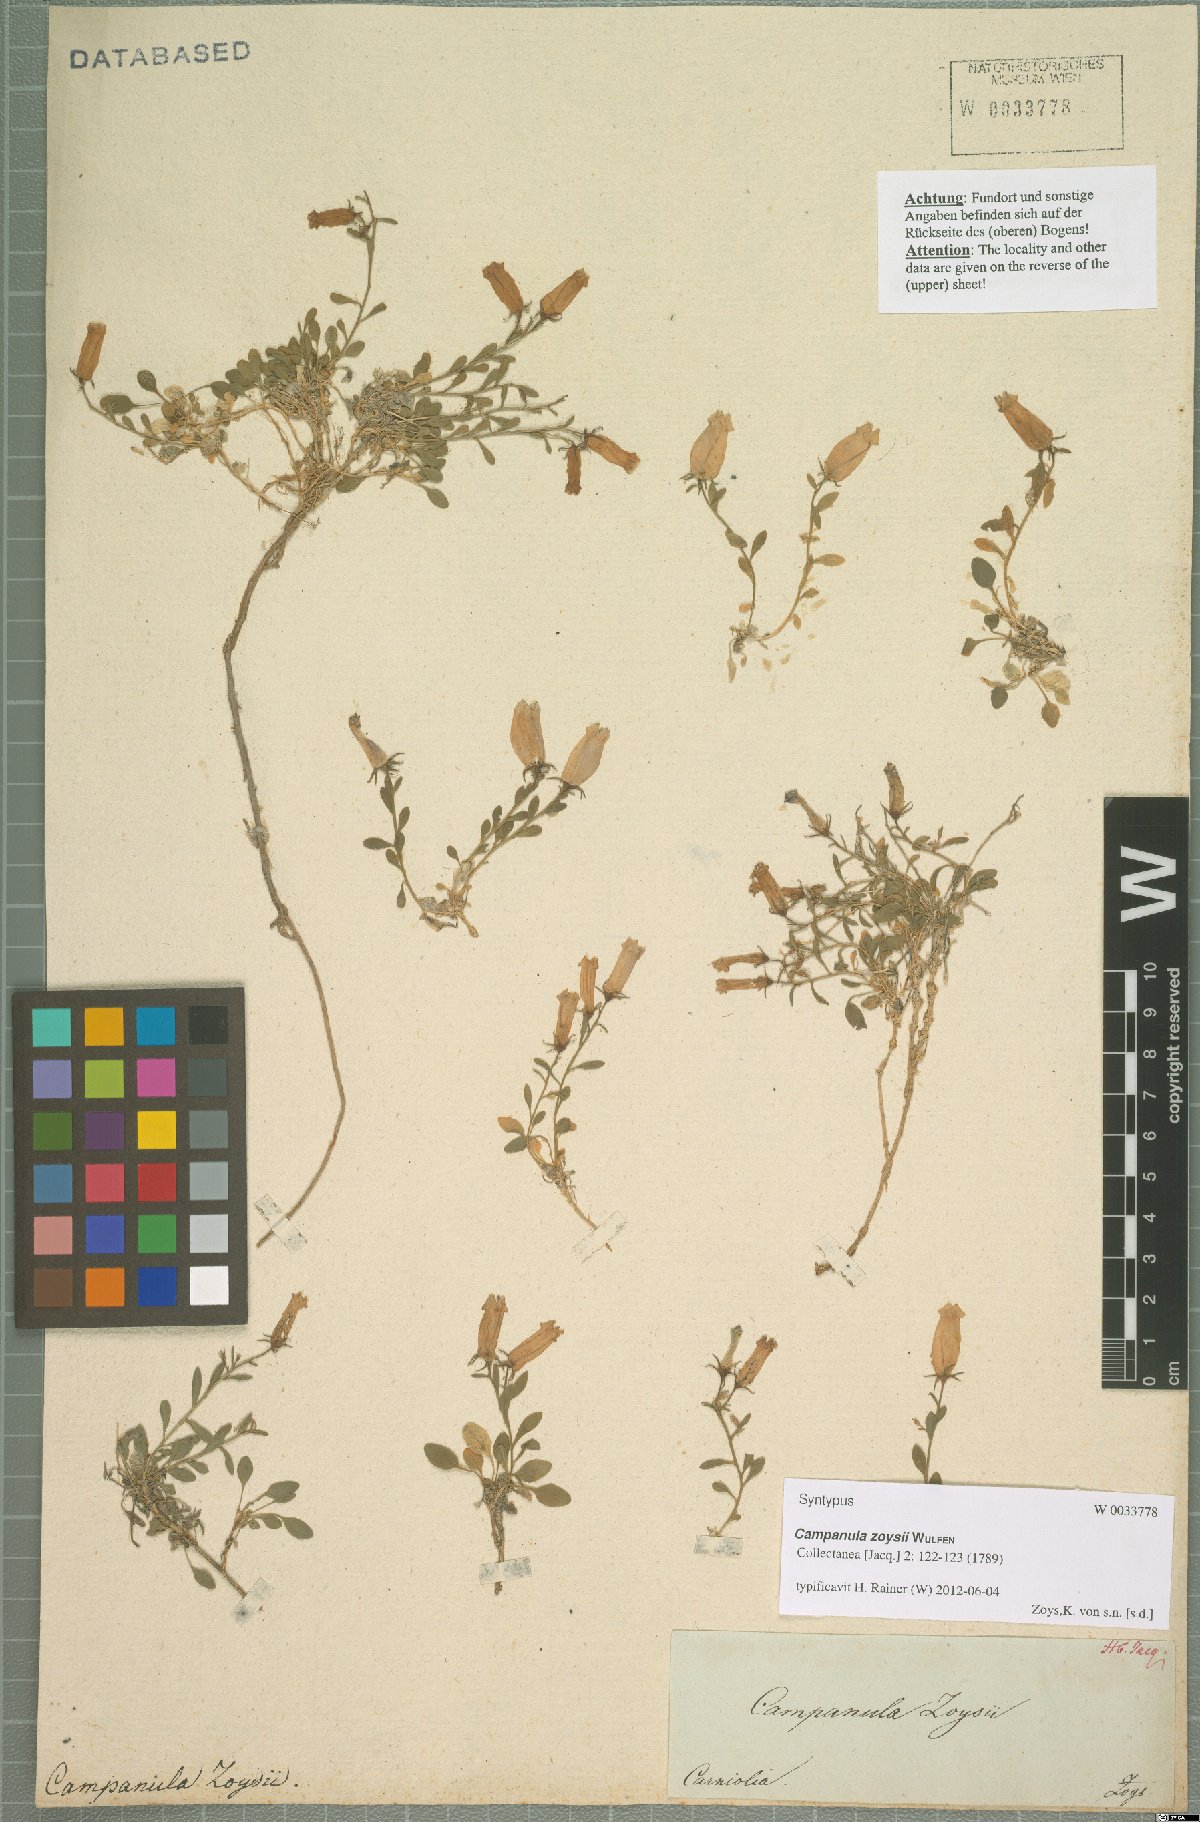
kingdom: Plantae
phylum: Tracheophyta
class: Magnoliopsida
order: Asterales
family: Campanulaceae
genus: Favratia
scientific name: Favratia zoysii
